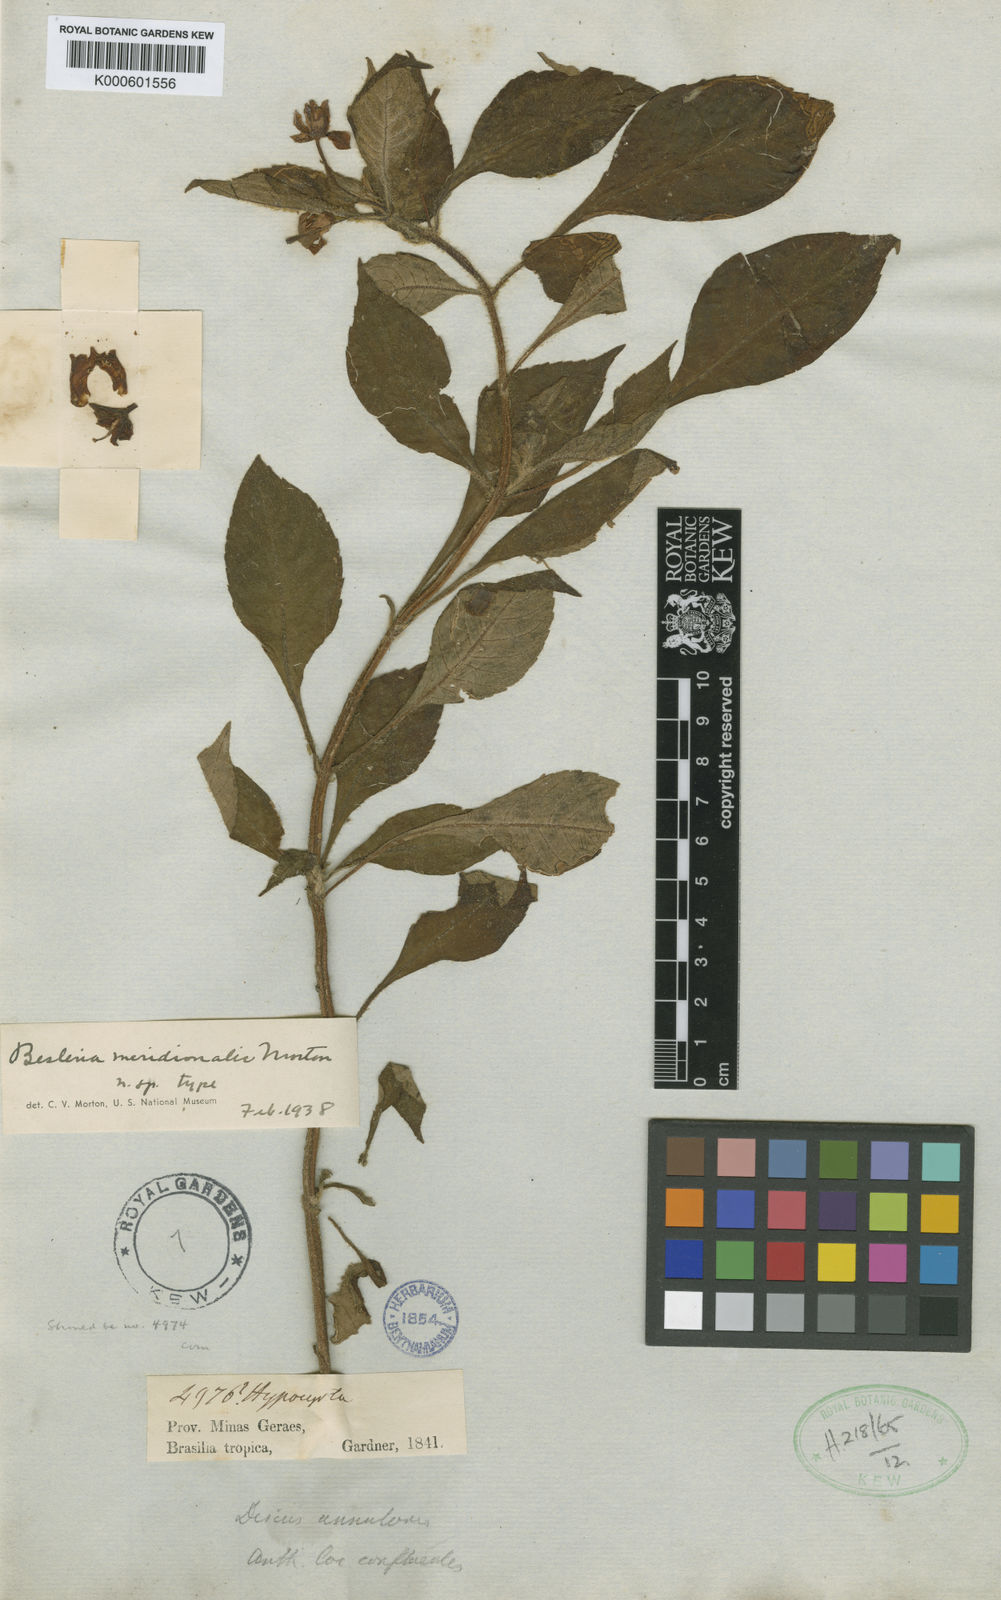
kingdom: Plantae
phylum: Tracheophyta
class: Magnoliopsida
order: Lamiales
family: Gesneriaceae
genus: Besleria
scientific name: Besleria meridionalis
